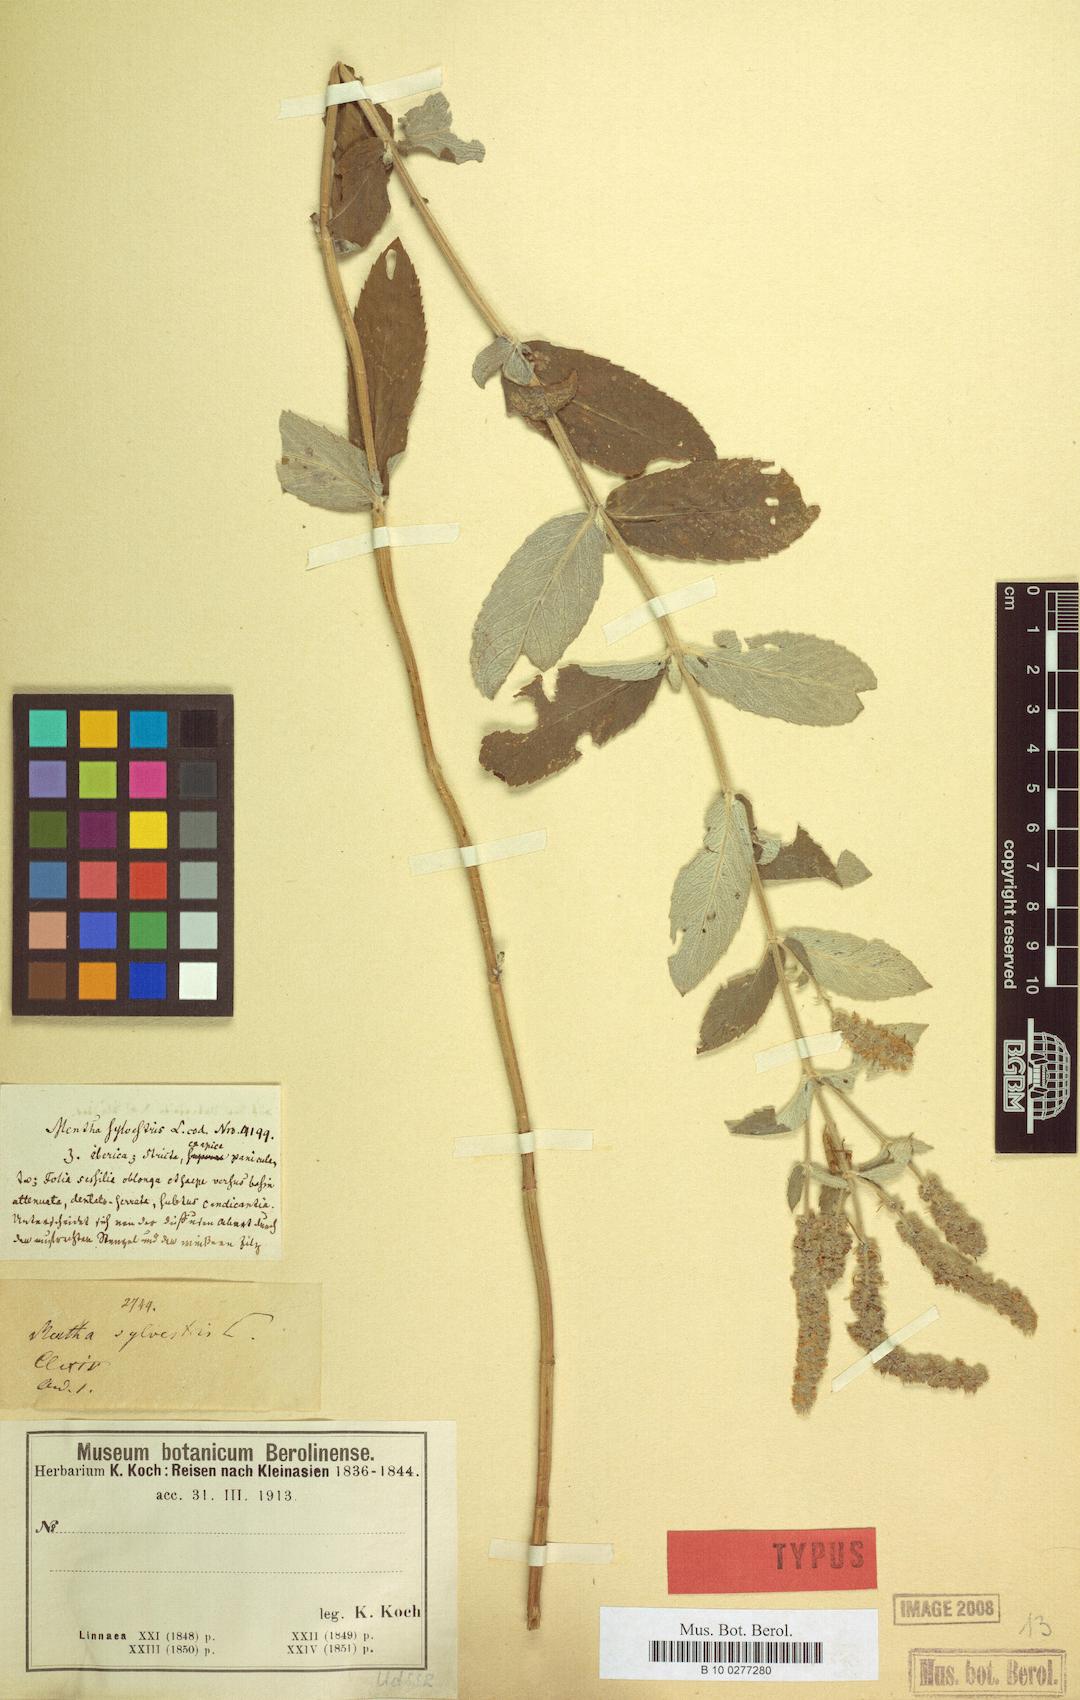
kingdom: Plantae
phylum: Tracheophyta
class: Magnoliopsida
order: Lamiales
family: Lamiaceae
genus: Mentha
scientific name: Mentha longifolia
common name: Horse mint
